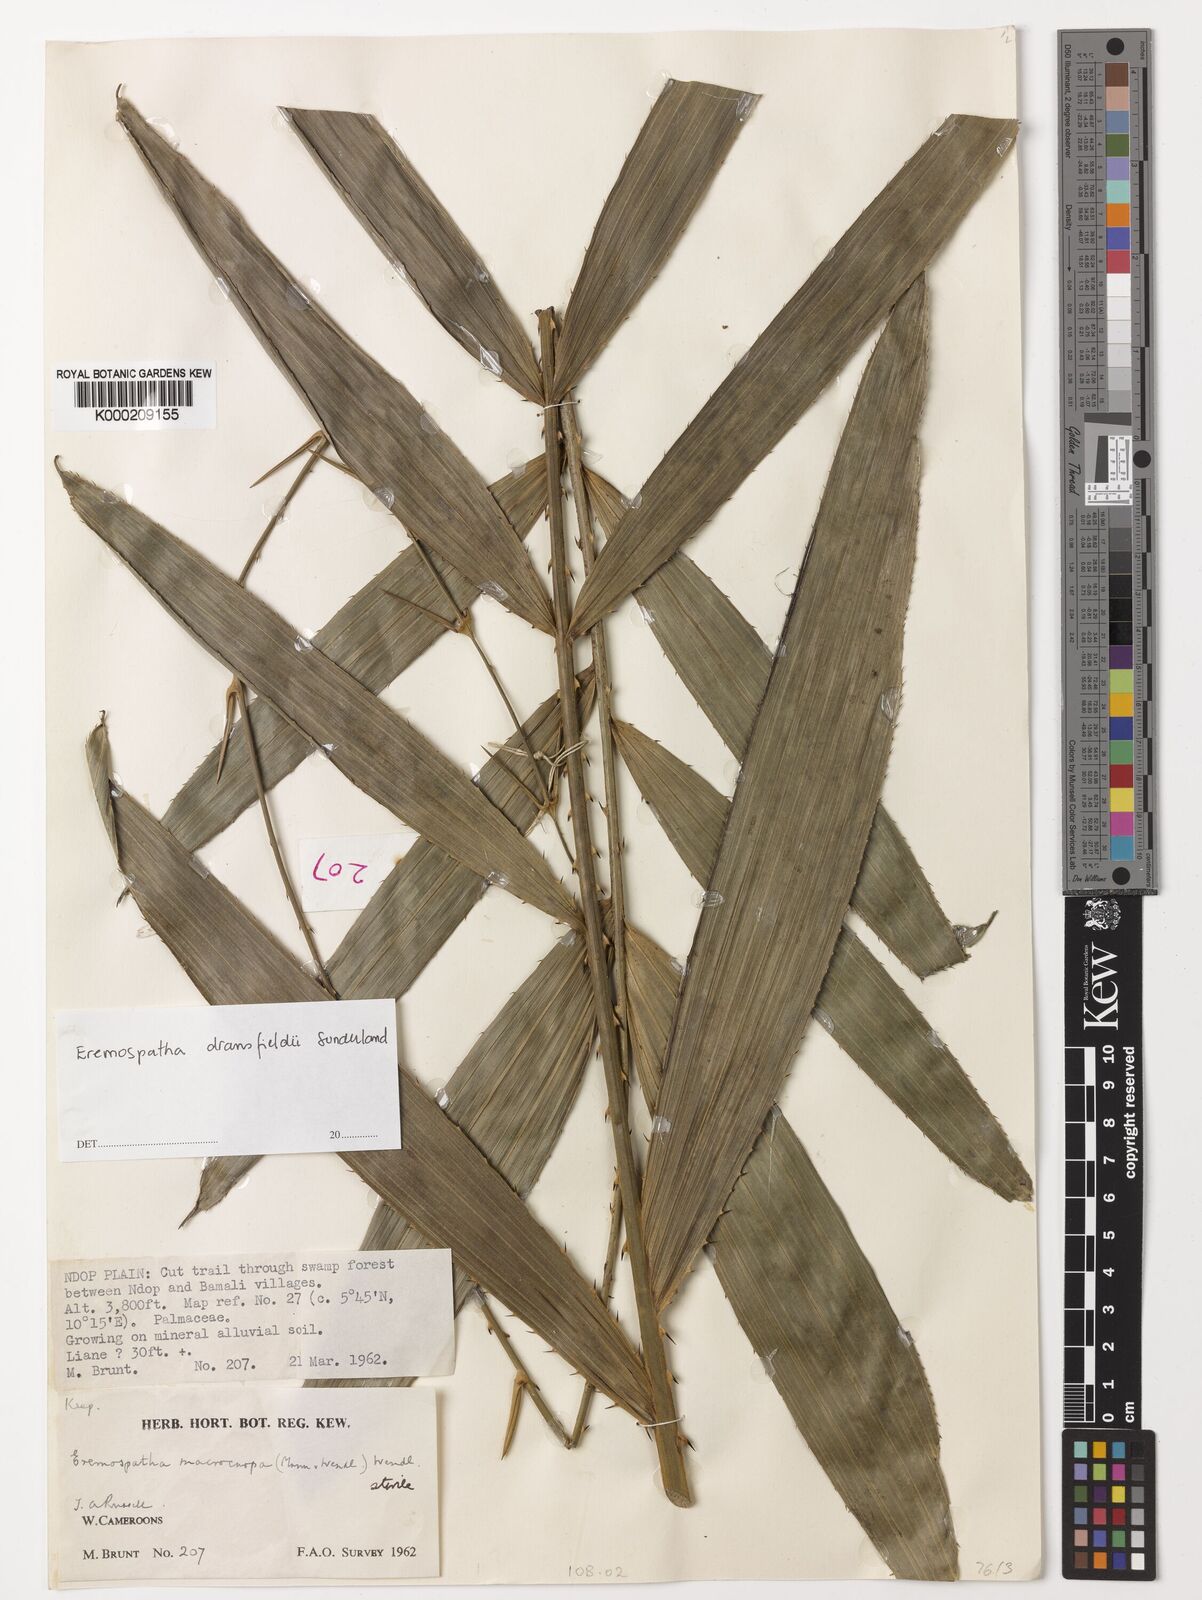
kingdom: Plantae
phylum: Tracheophyta
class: Liliopsida
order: Arecales
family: Arecaceae
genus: Eremospatha
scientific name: Eremospatha dransfieldii
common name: Rattan
